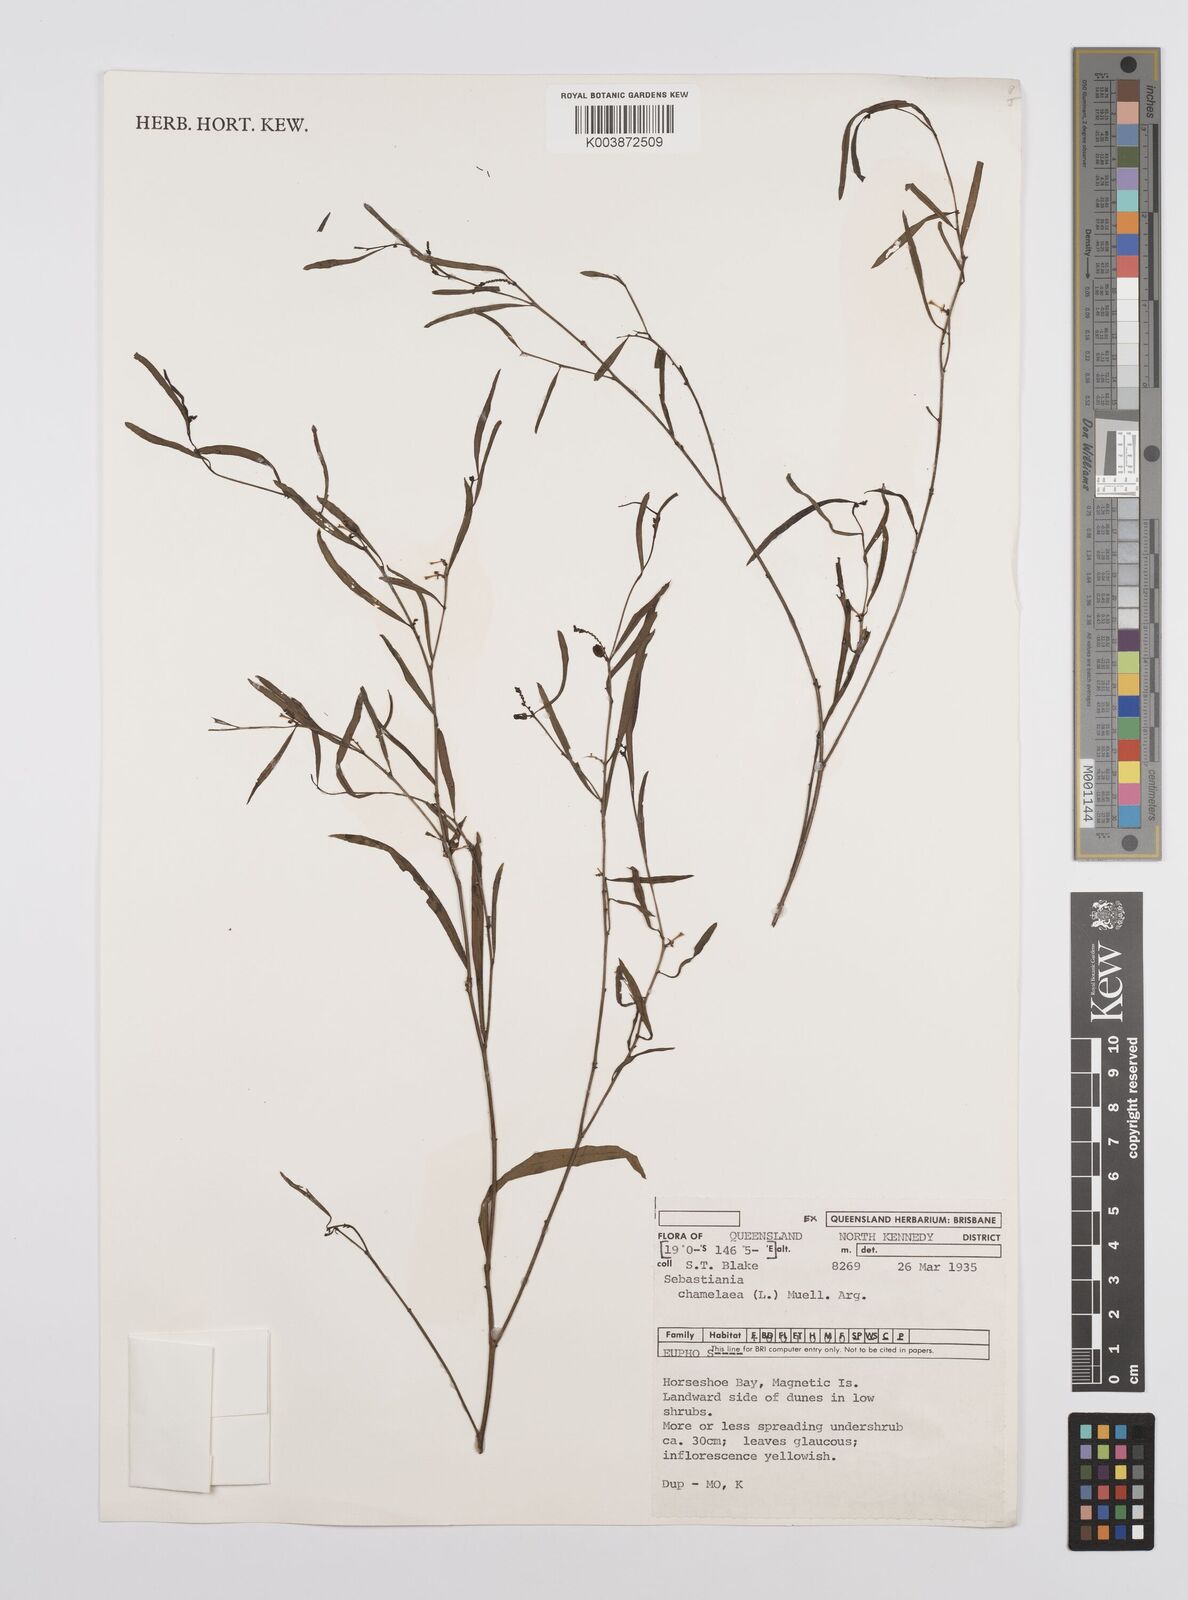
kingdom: Plantae
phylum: Tracheophyta
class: Magnoliopsida
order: Malpighiales
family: Euphorbiaceae
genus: Microstachys
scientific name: Microstachys chamaelea
